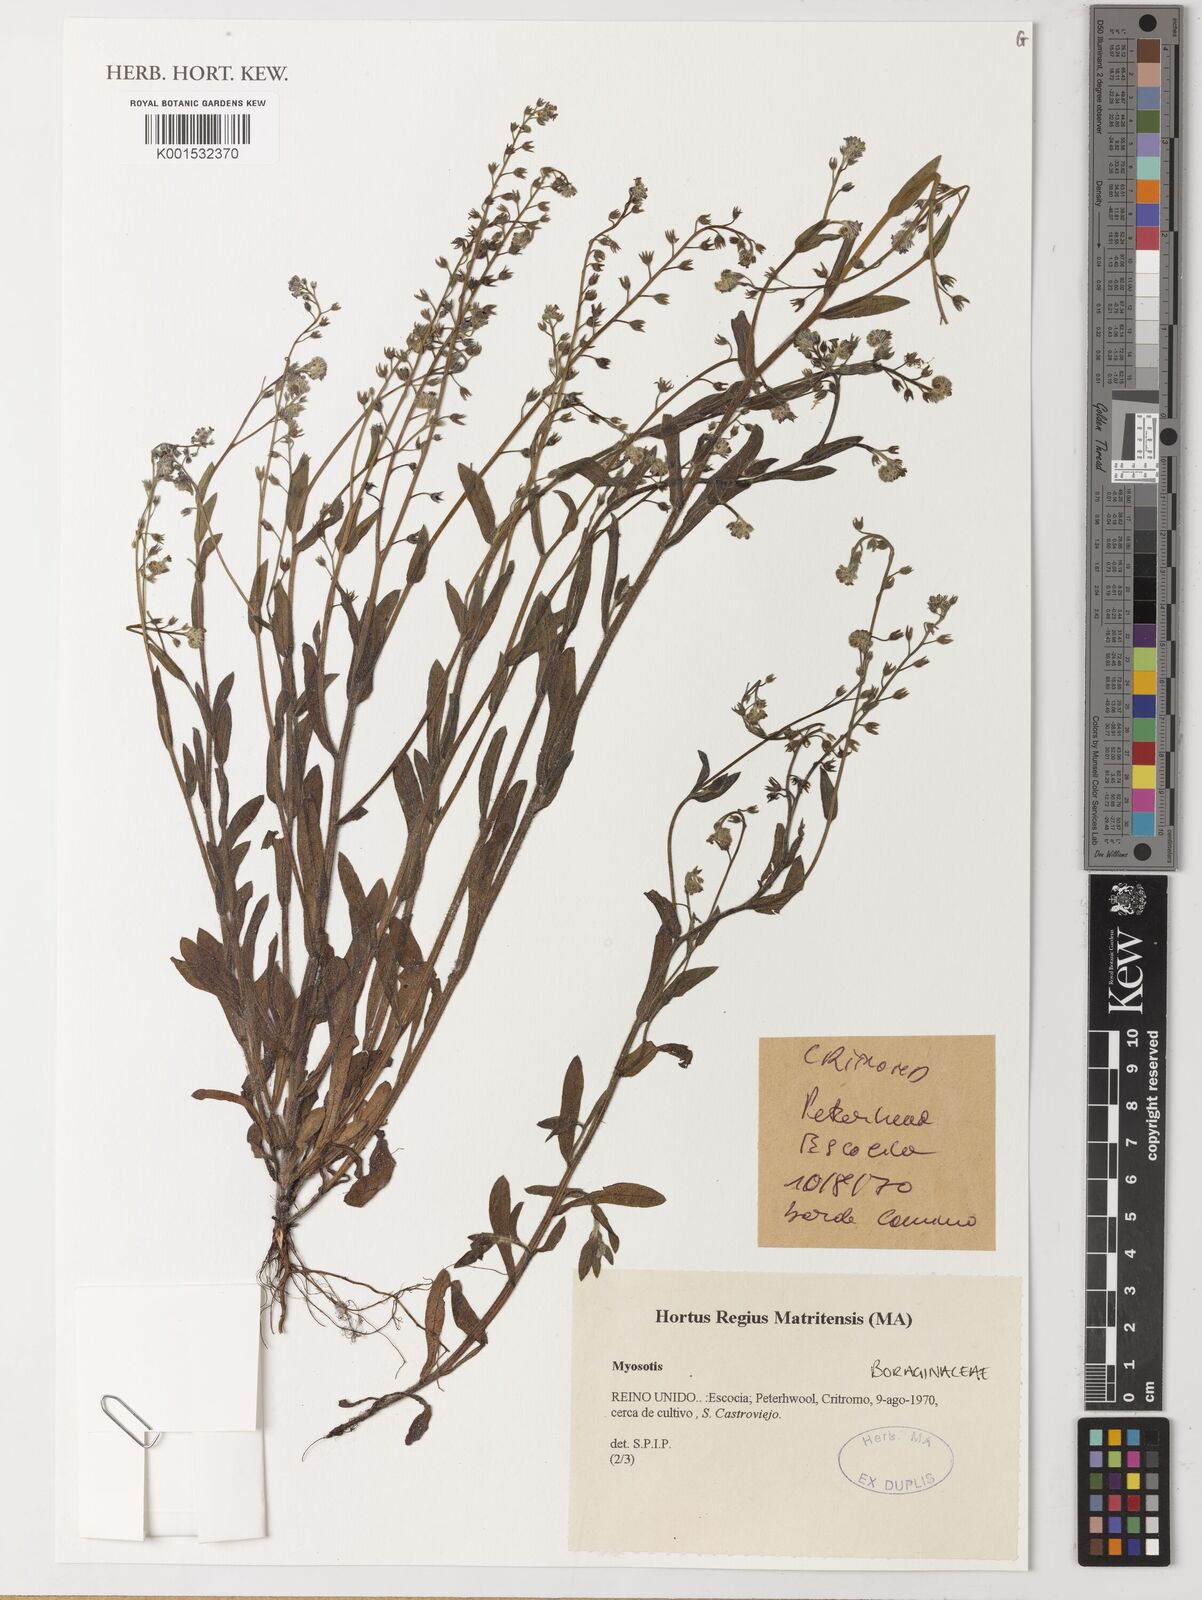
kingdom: Plantae
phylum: Tracheophyta
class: Magnoliopsida
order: Boraginales
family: Boraginaceae
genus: Myosotis
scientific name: Myosotis
